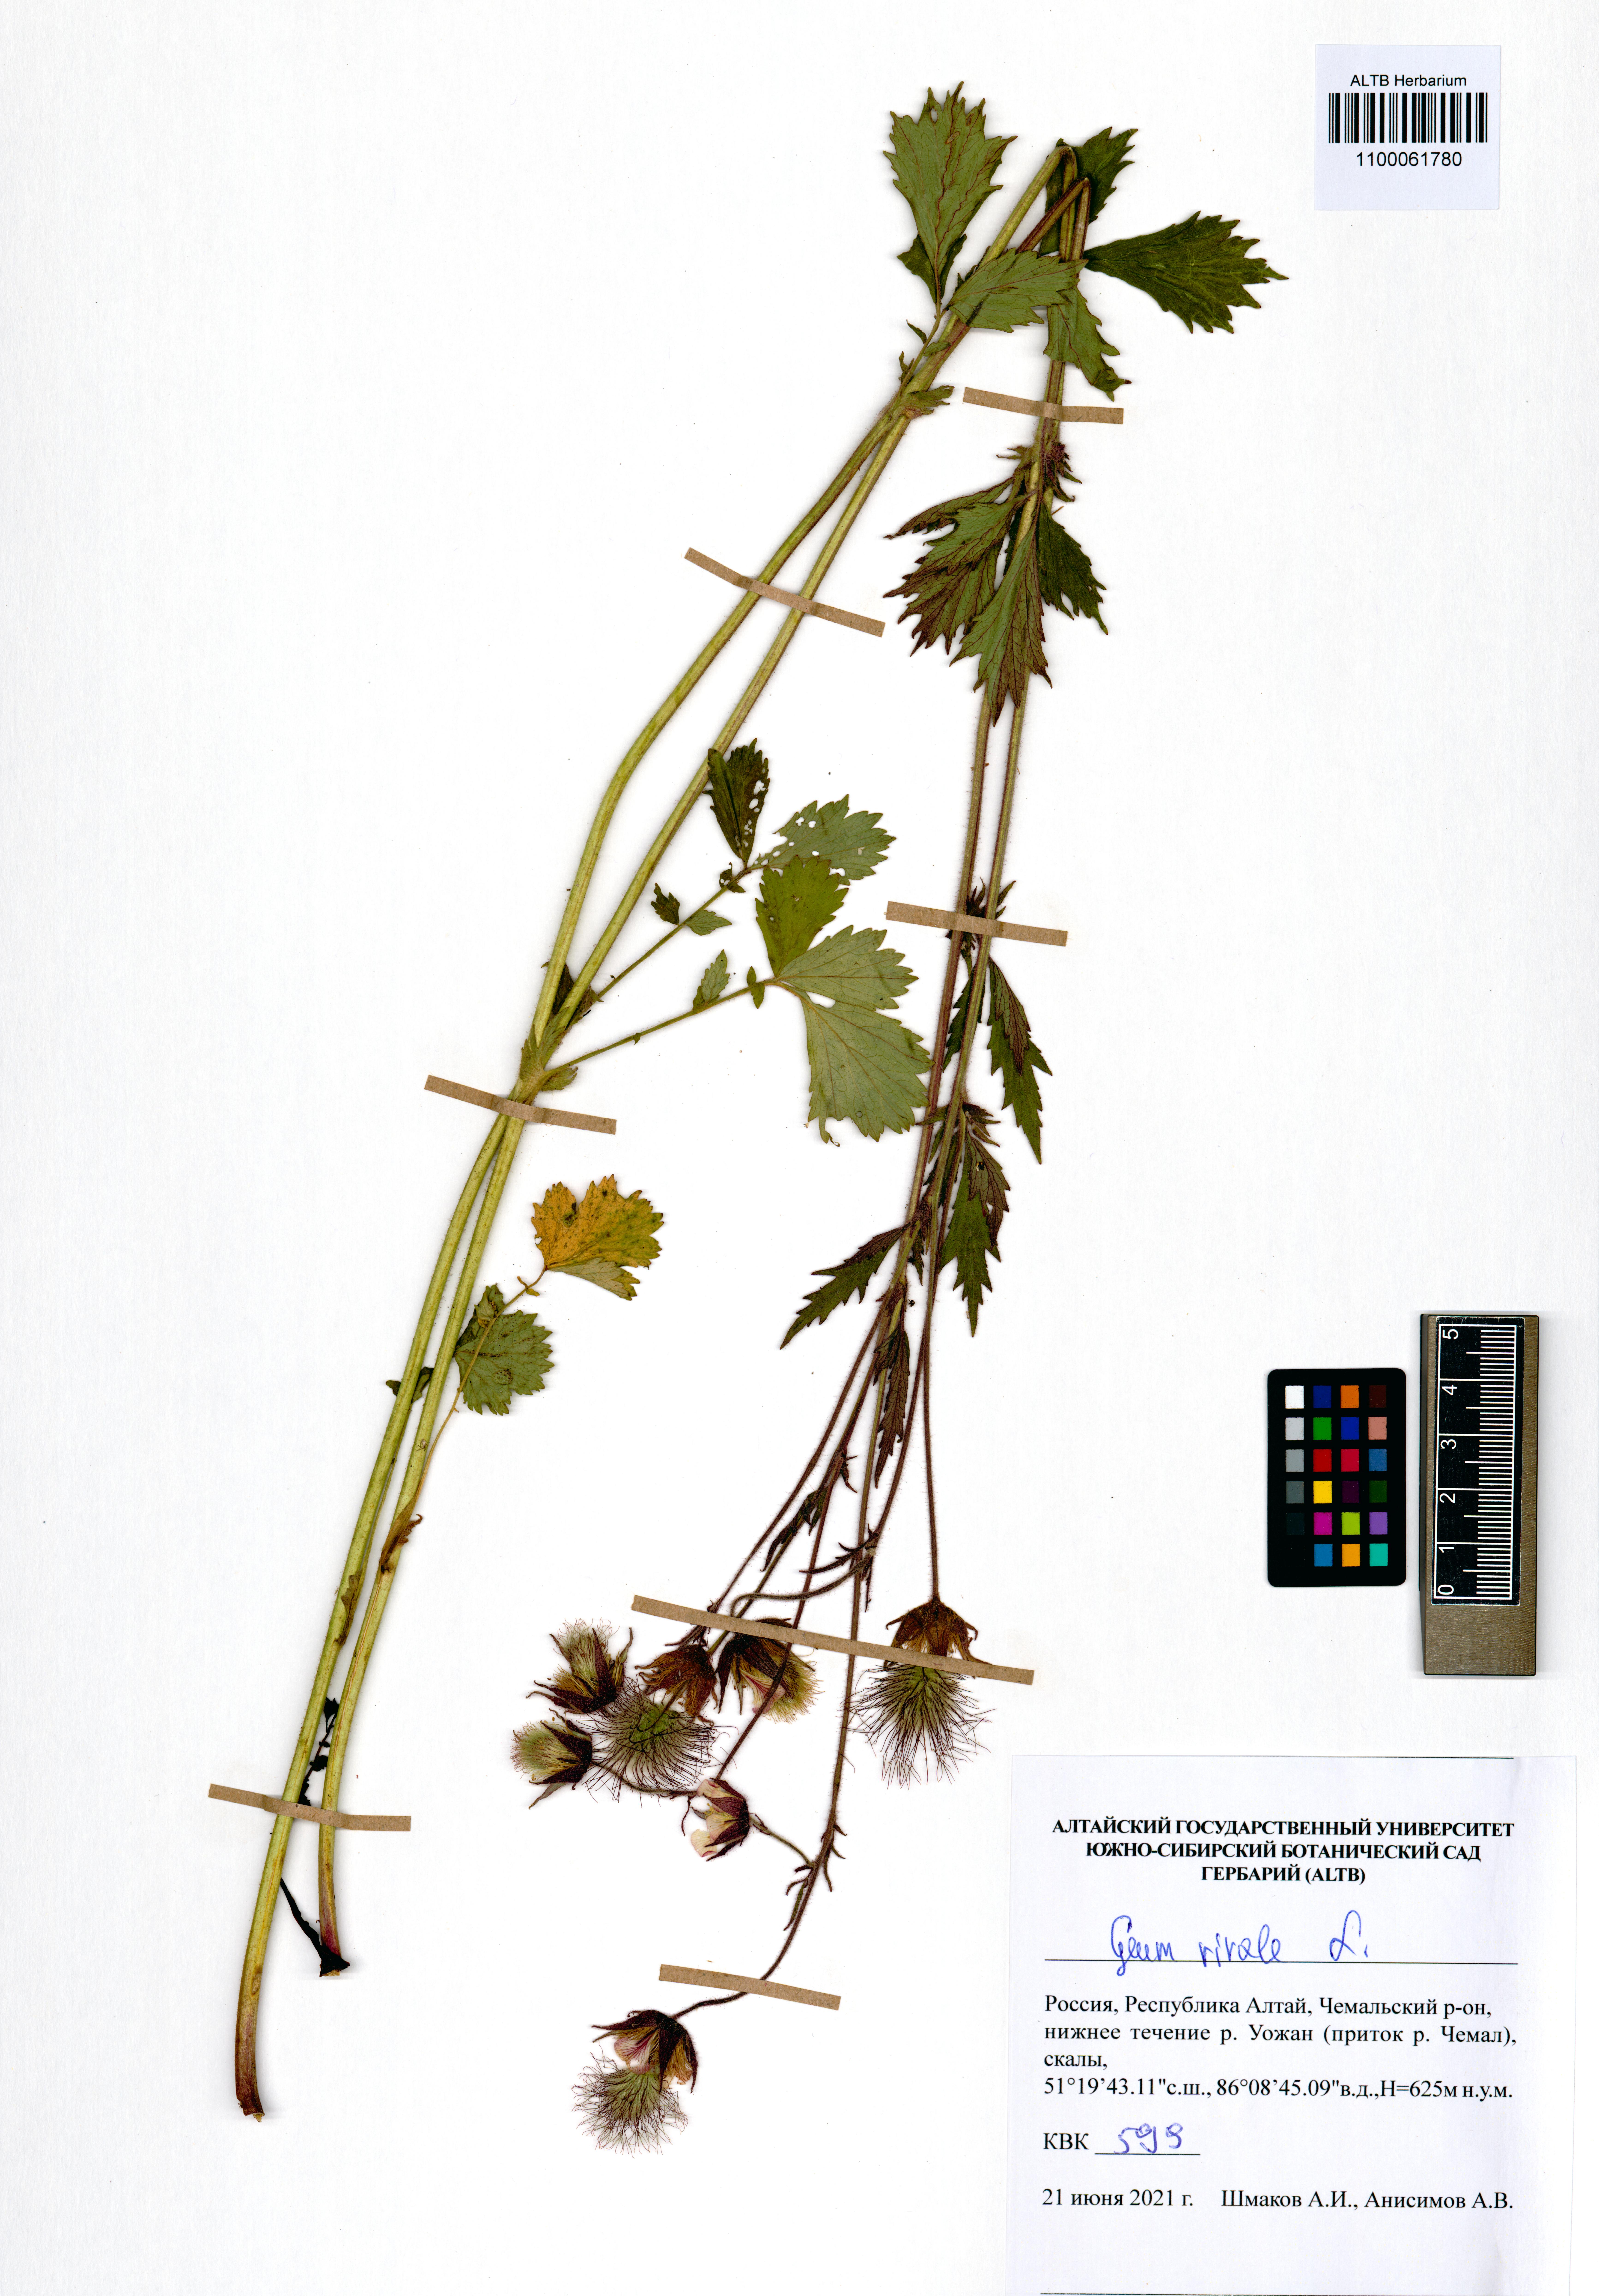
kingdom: Plantae
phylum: Tracheophyta
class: Magnoliopsida
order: Rosales
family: Rosaceae
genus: Geum
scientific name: Geum rivale
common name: Water avens
